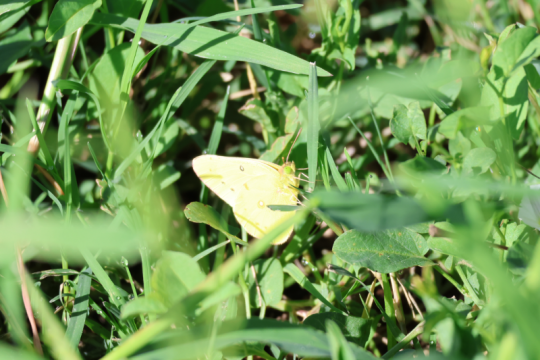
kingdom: Animalia
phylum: Arthropoda
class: Insecta
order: Lepidoptera
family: Pieridae
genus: Colias
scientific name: Colias eurytheme
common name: Orange Sulphur
